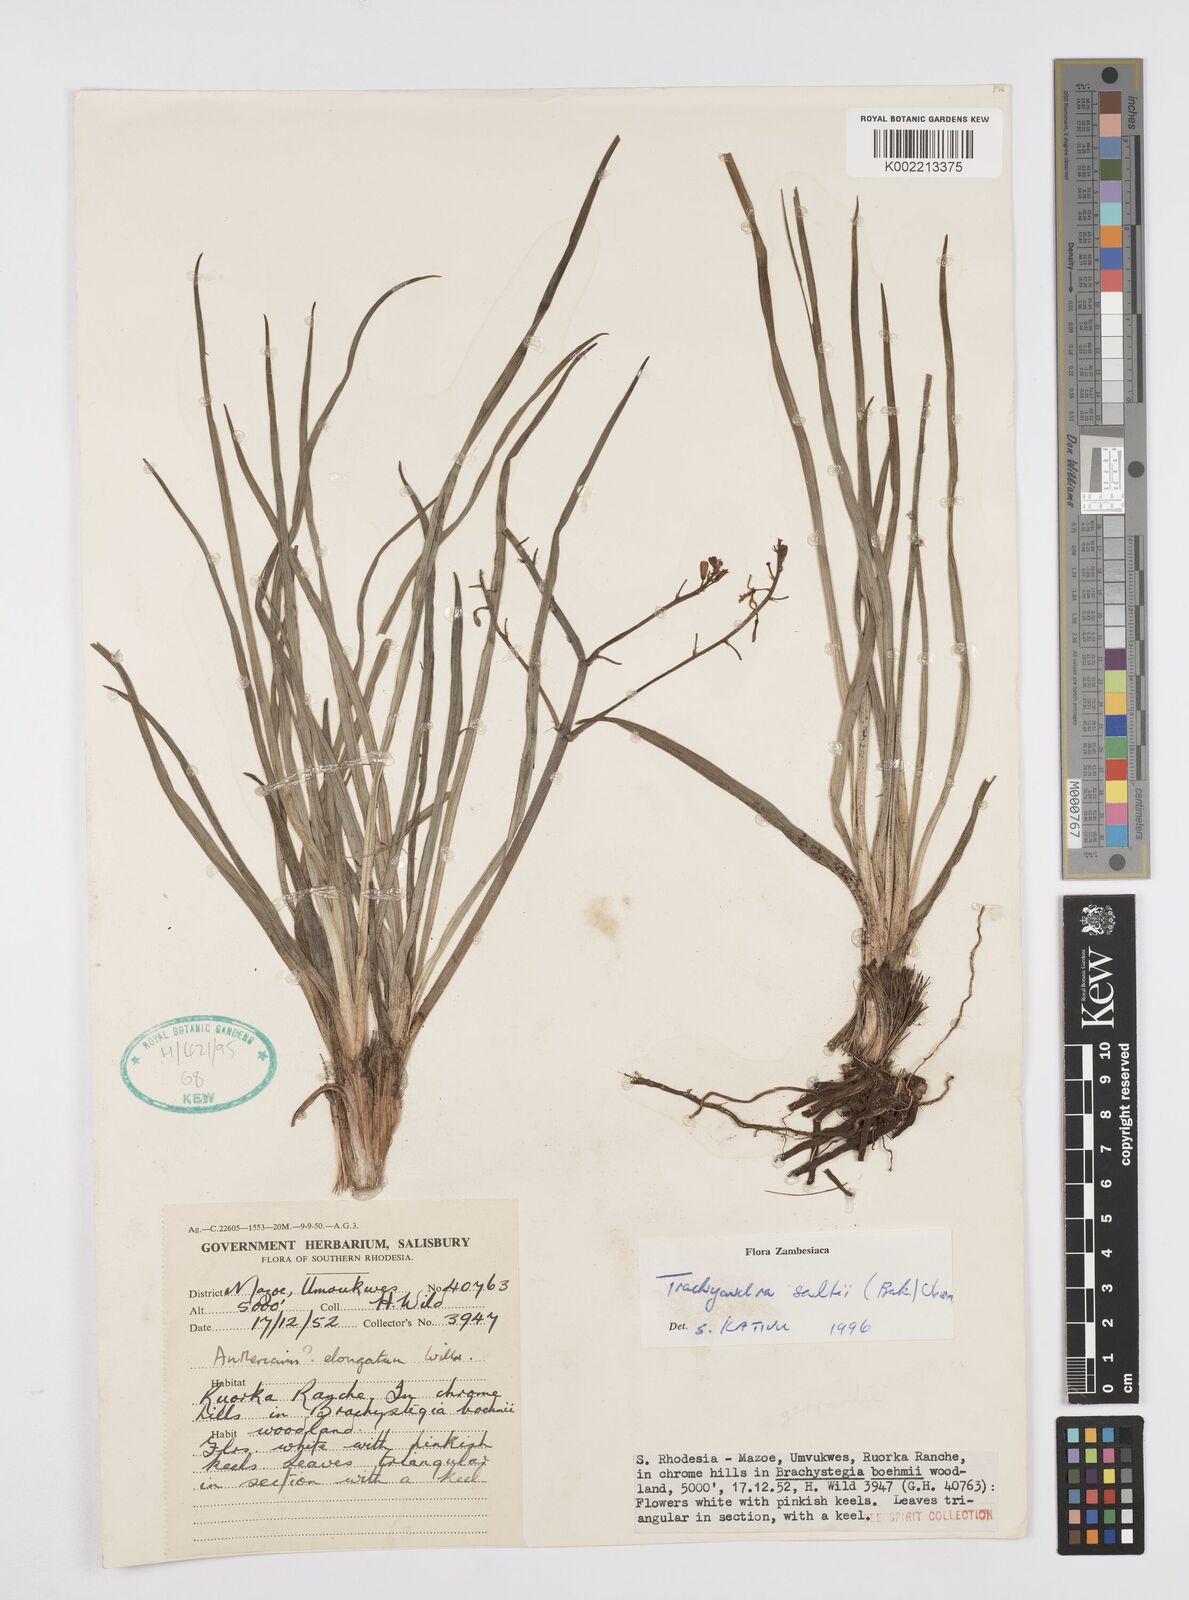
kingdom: Plantae
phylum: Tracheophyta
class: Liliopsida
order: Asparagales
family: Asphodelaceae
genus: Trachyandra
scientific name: Trachyandra
